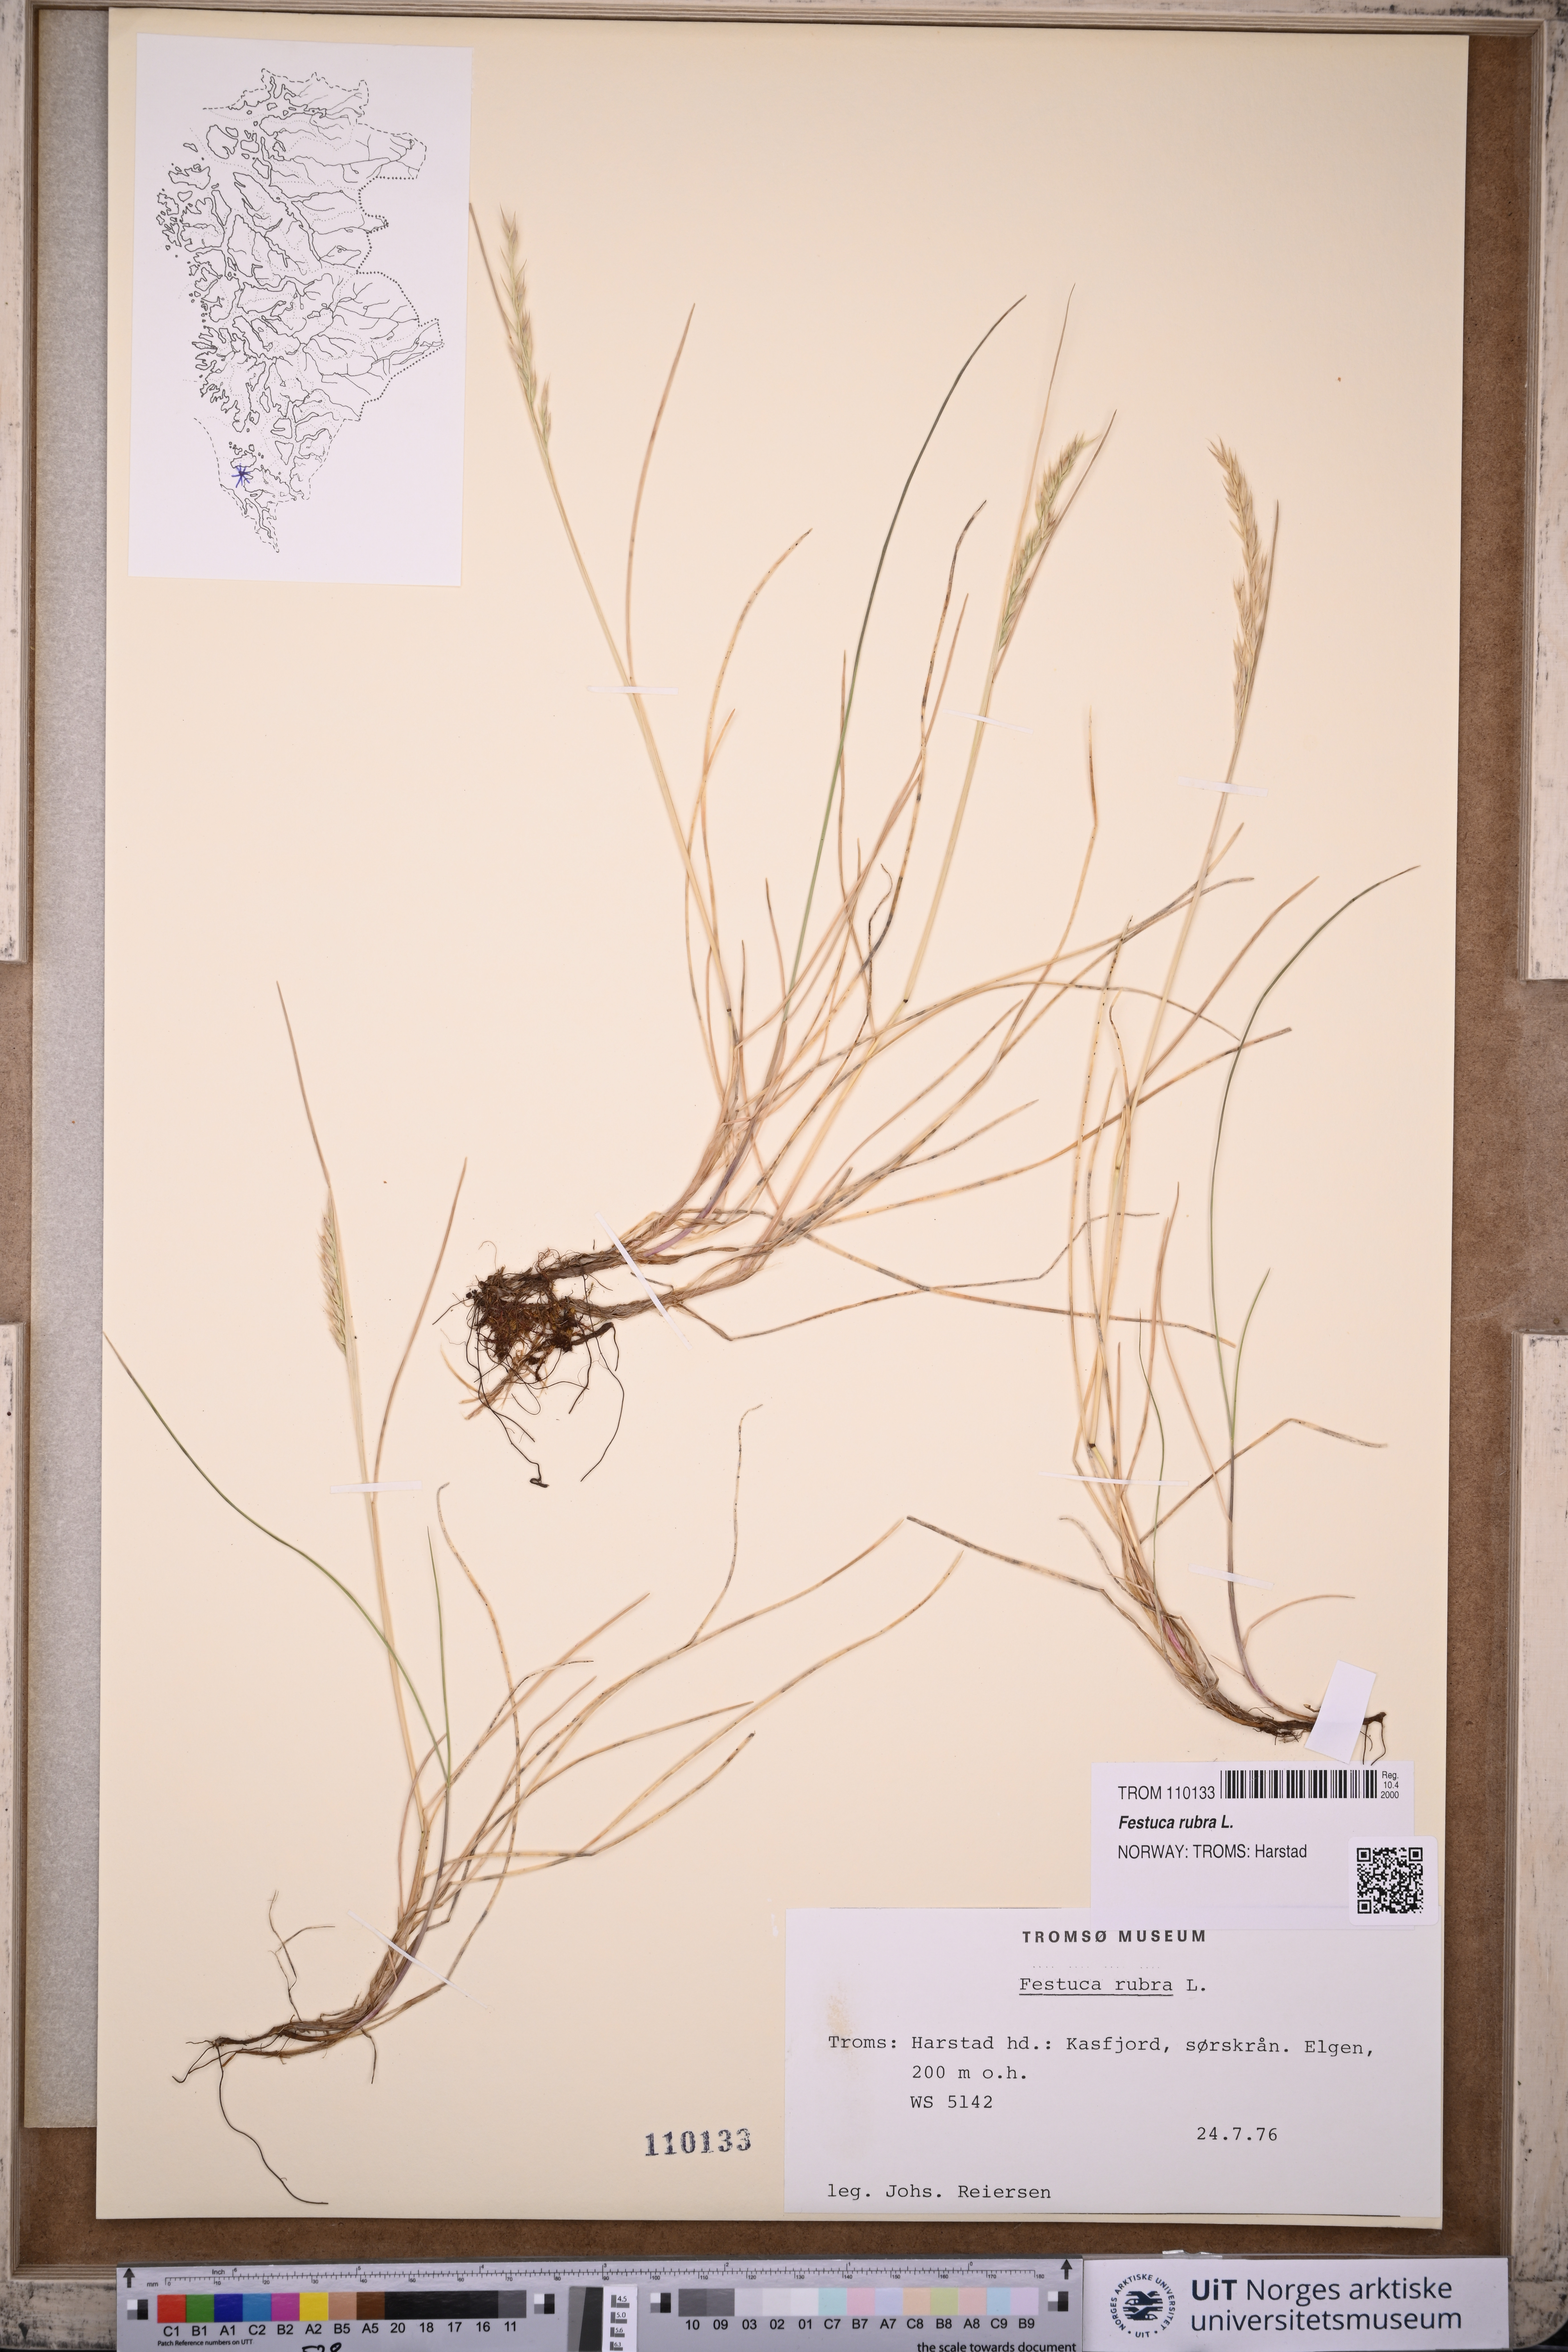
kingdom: Plantae
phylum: Tracheophyta
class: Liliopsida
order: Poales
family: Poaceae
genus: Festuca
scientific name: Festuca rubra
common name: Red fescue
